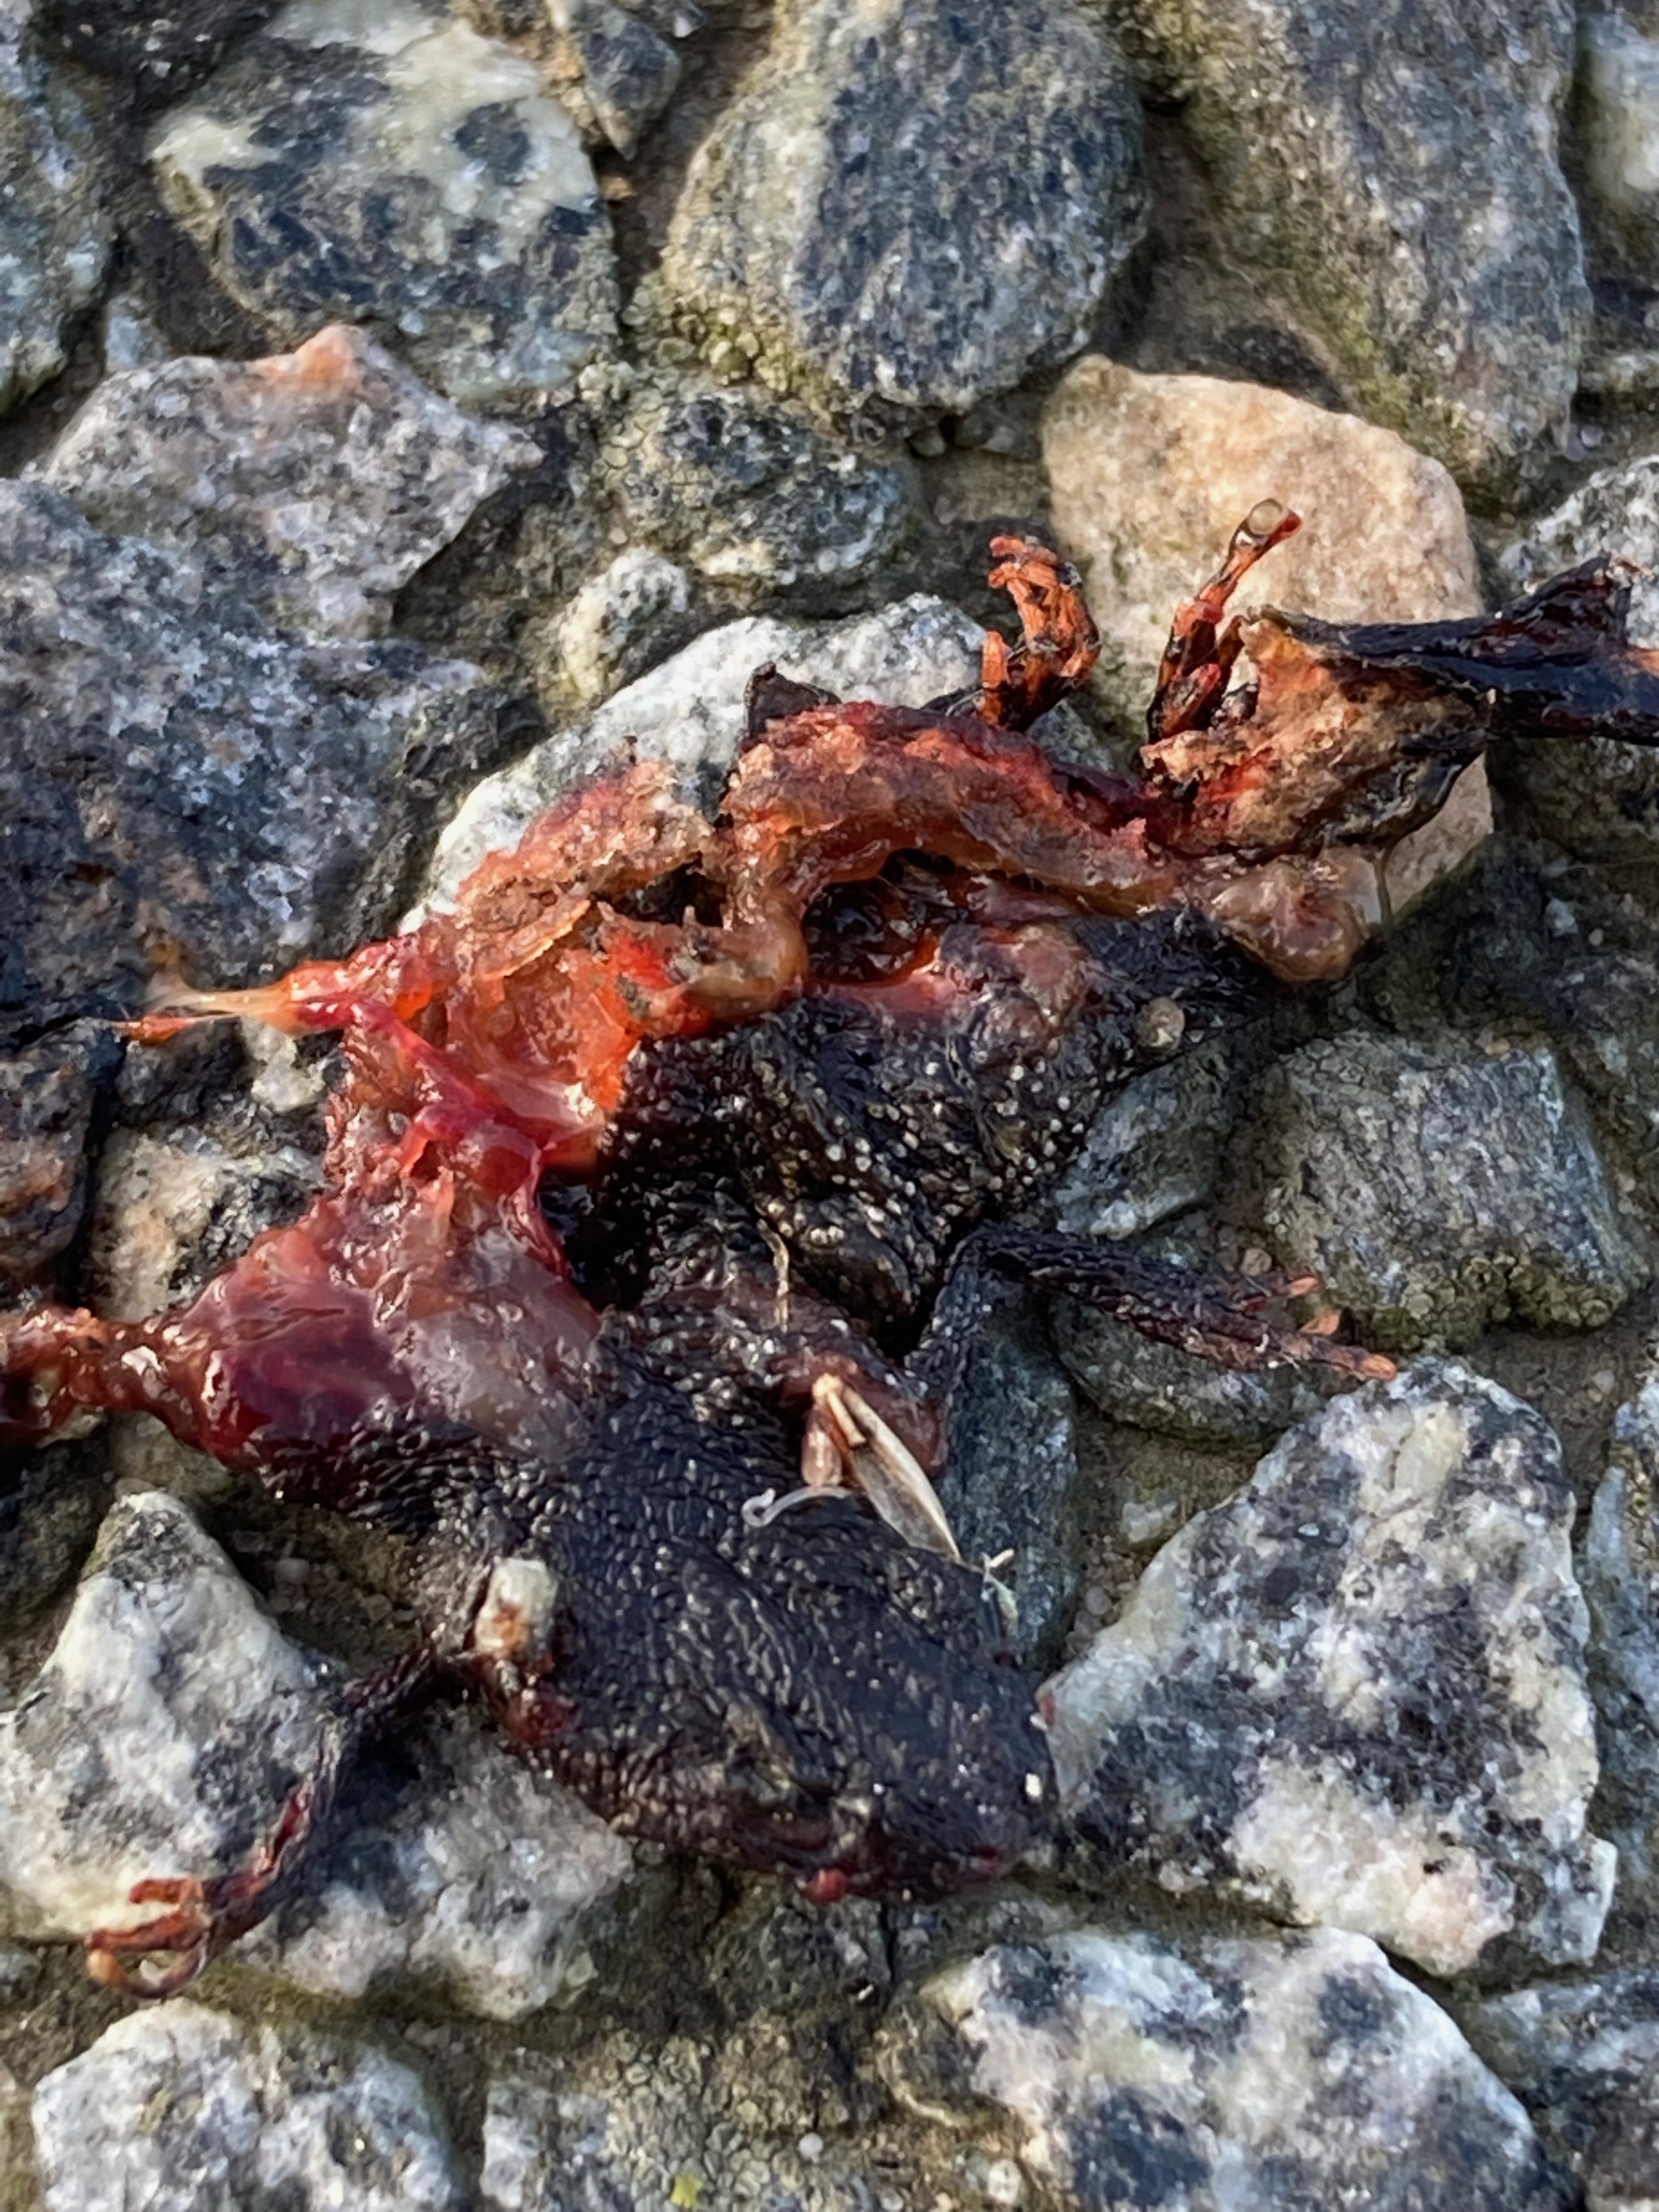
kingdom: Animalia
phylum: Chordata
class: Amphibia
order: Caudata
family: Salamandridae
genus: Triturus
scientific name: Triturus cristatus
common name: Stor vandsalamander
